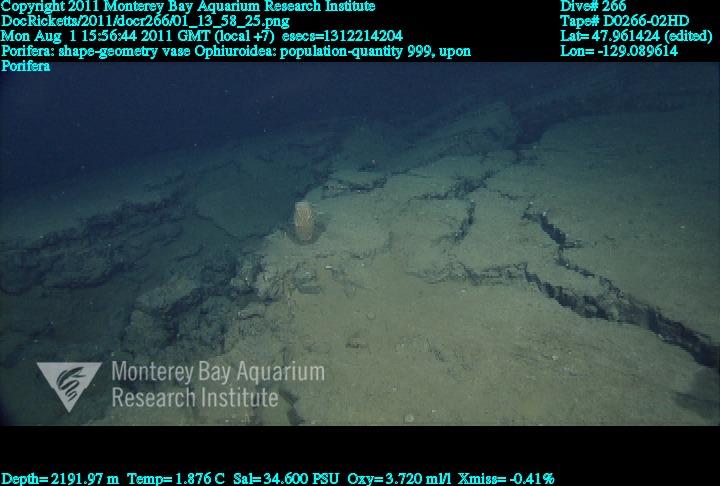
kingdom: Animalia
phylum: Porifera
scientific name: Porifera
